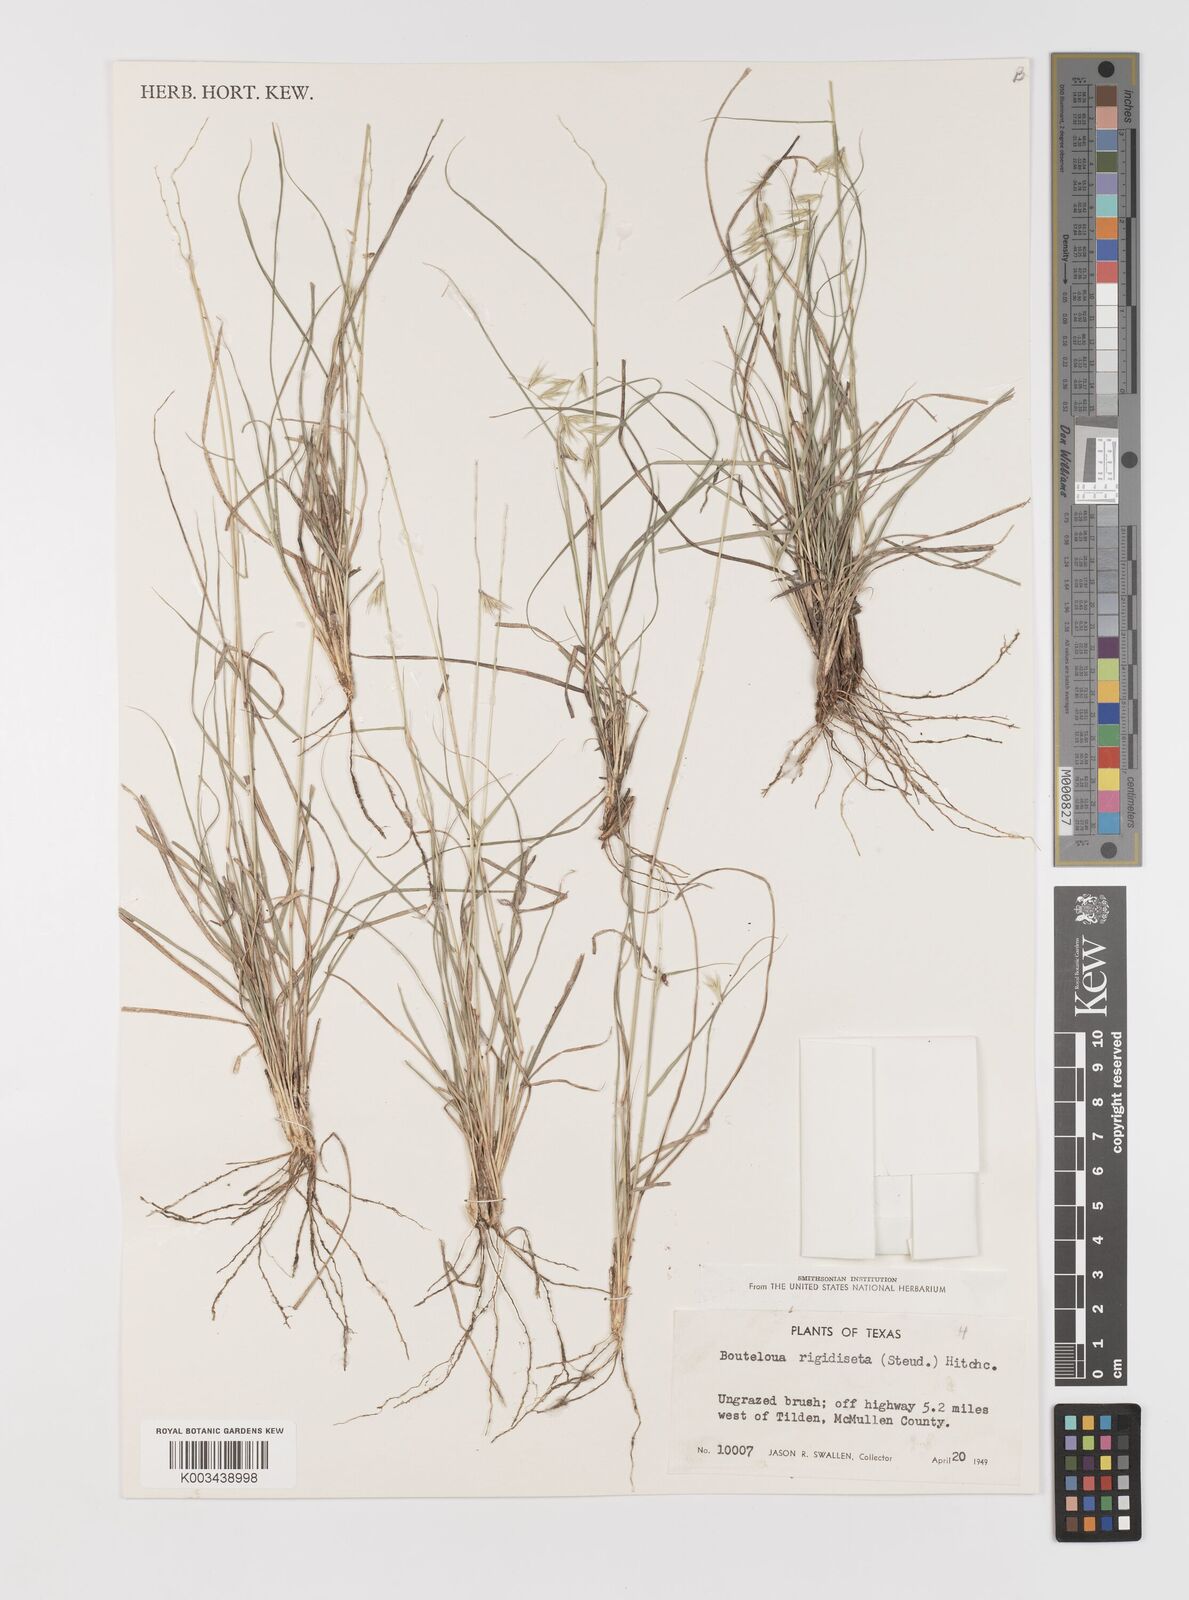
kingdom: Plantae
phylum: Tracheophyta
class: Liliopsida
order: Poales
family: Poaceae
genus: Bouteloua
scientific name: Bouteloua rigidiseta
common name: Texas grama
